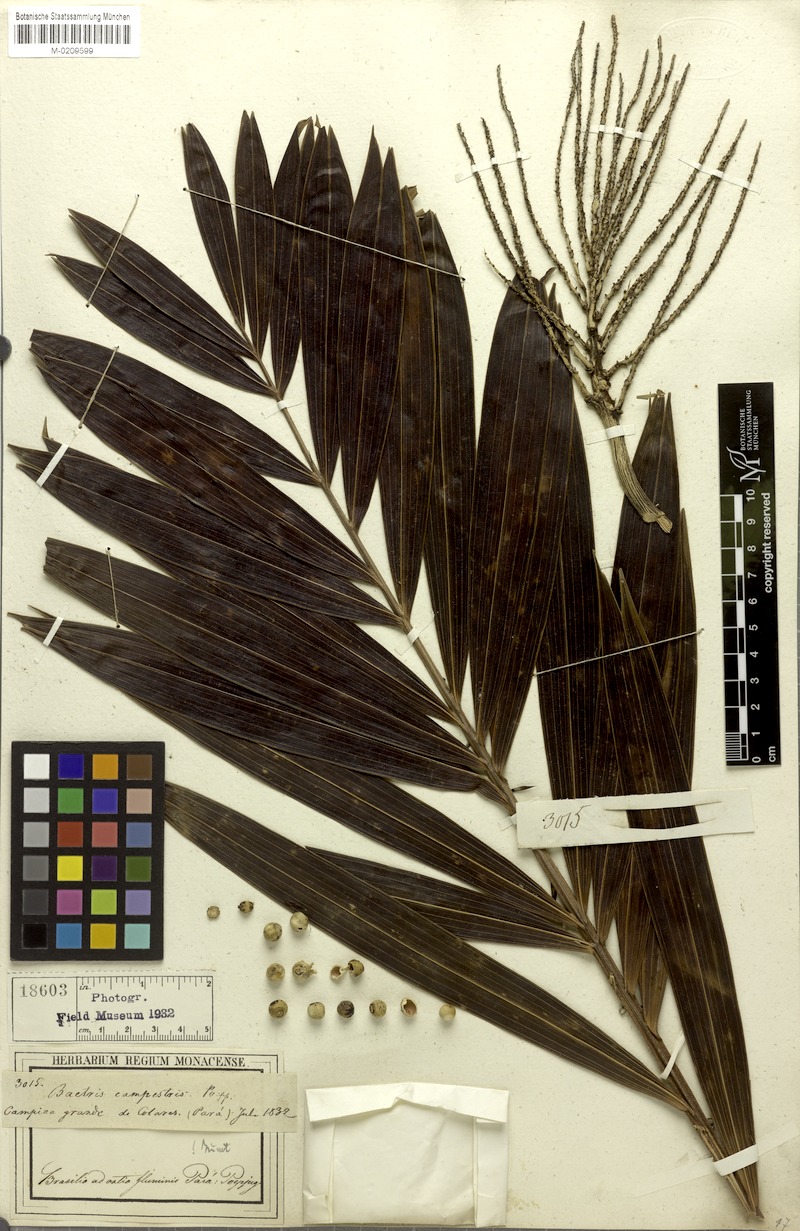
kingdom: Plantae
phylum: Tracheophyta
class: Liliopsida
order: Arecales
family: Arecaceae
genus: Bactris
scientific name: Bactris campestris
